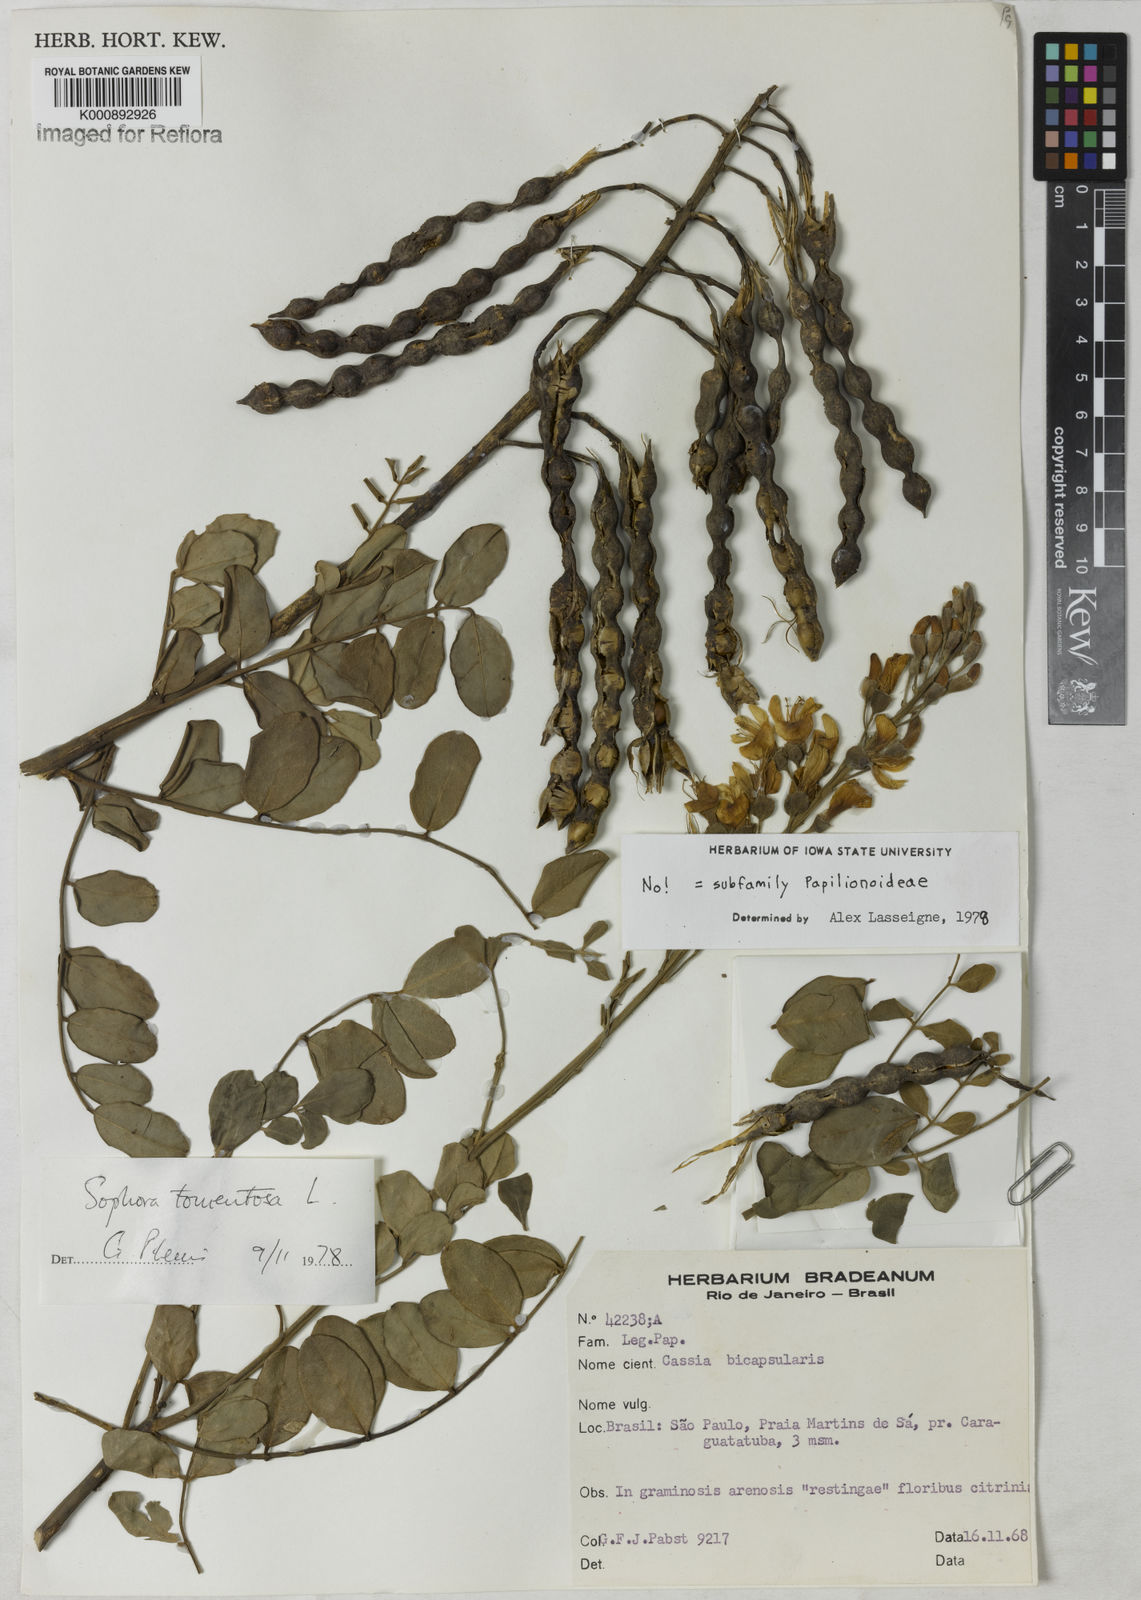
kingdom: Plantae
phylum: Tracheophyta
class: Magnoliopsida
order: Fabales
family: Fabaceae
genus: Sophora
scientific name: Sophora tomentosa
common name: Yellow necklacepod
